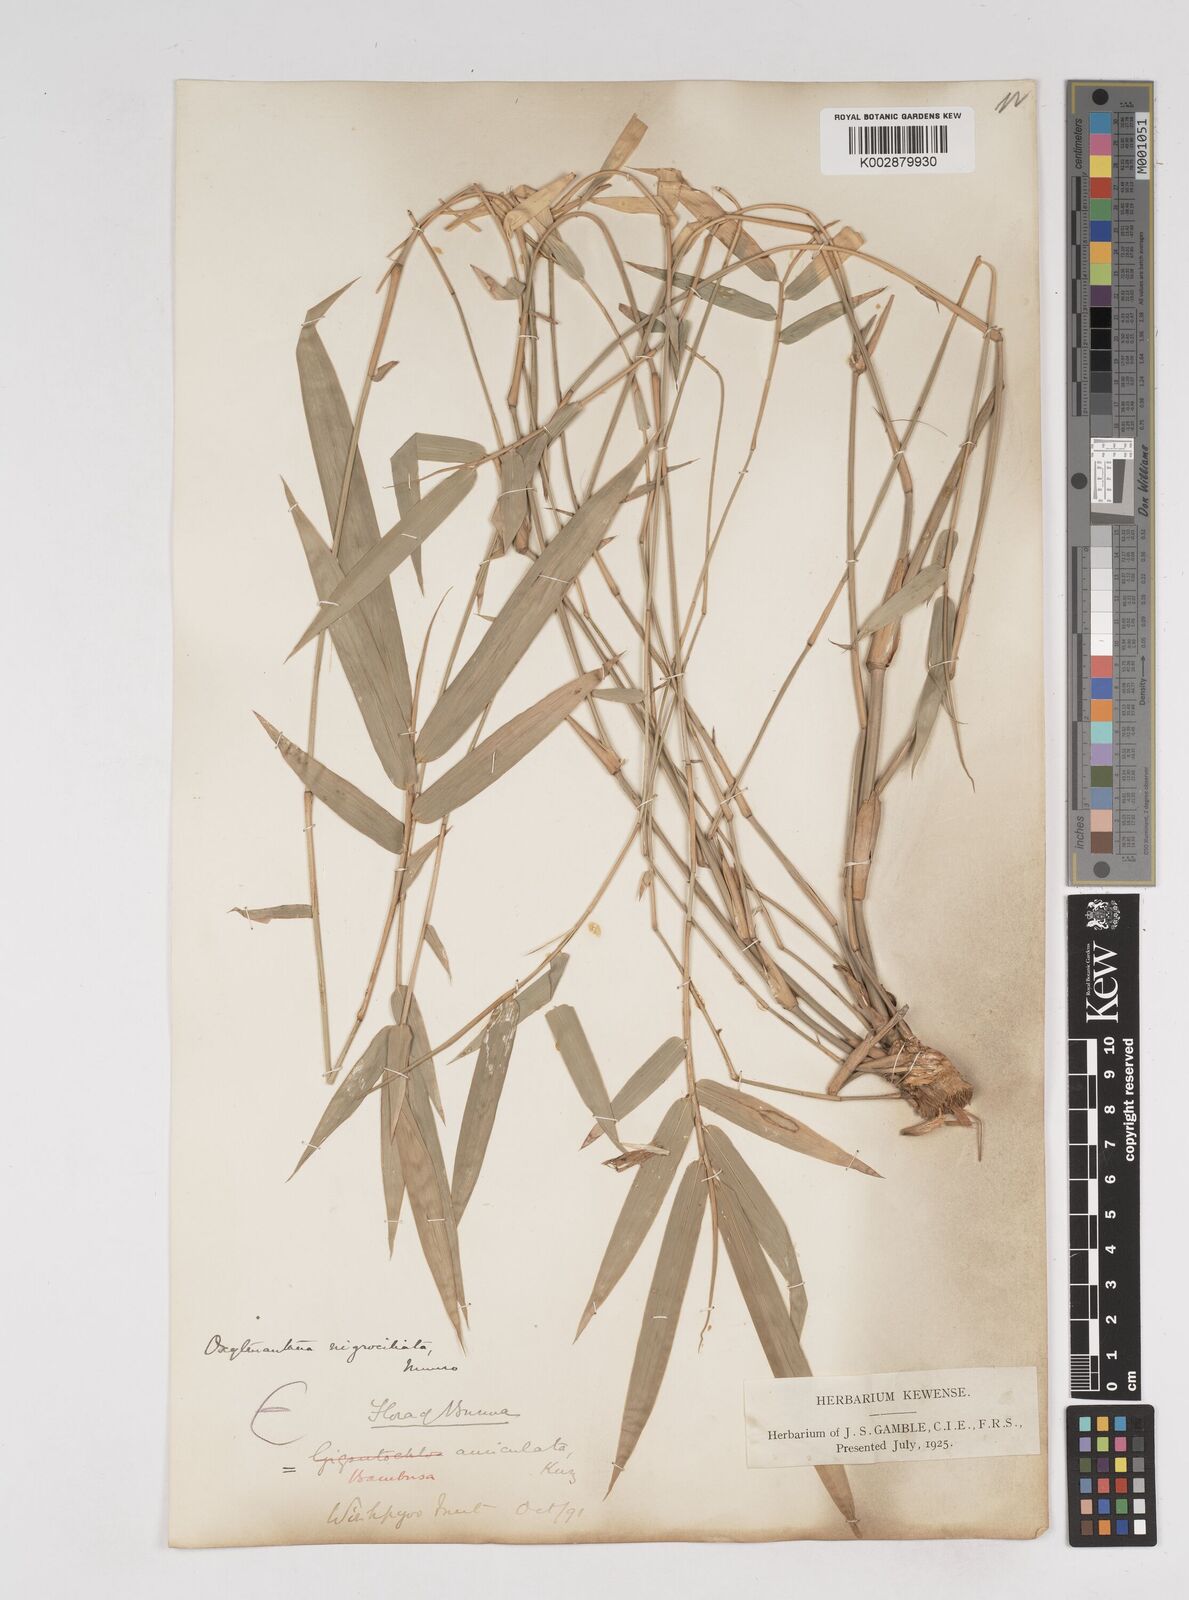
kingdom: Plantae
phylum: Tracheophyta
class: Liliopsida
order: Poales
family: Poaceae
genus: Gigantochloa
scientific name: Gigantochloa nigrociliata
